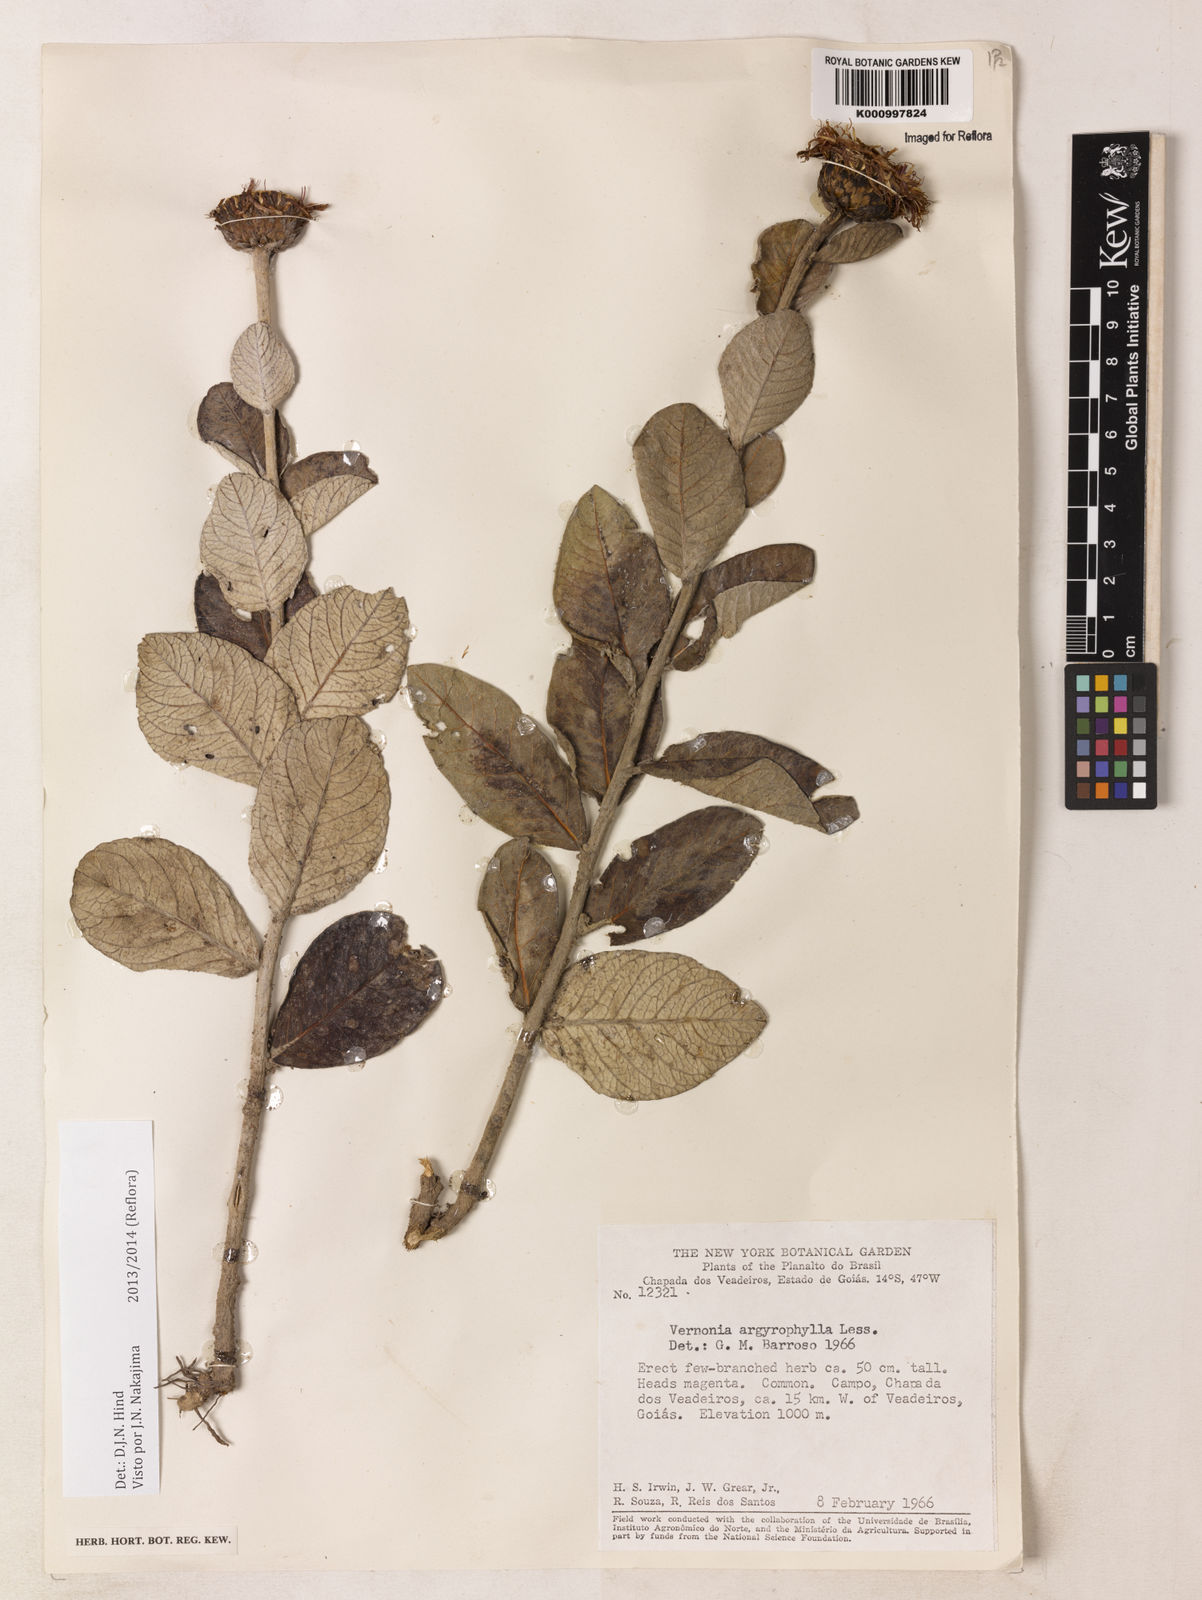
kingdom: Plantae
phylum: Tracheophyta
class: Magnoliopsida
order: Asterales
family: Asteraceae
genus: Lessingianthus
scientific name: Lessingianthus argyrophyllus
